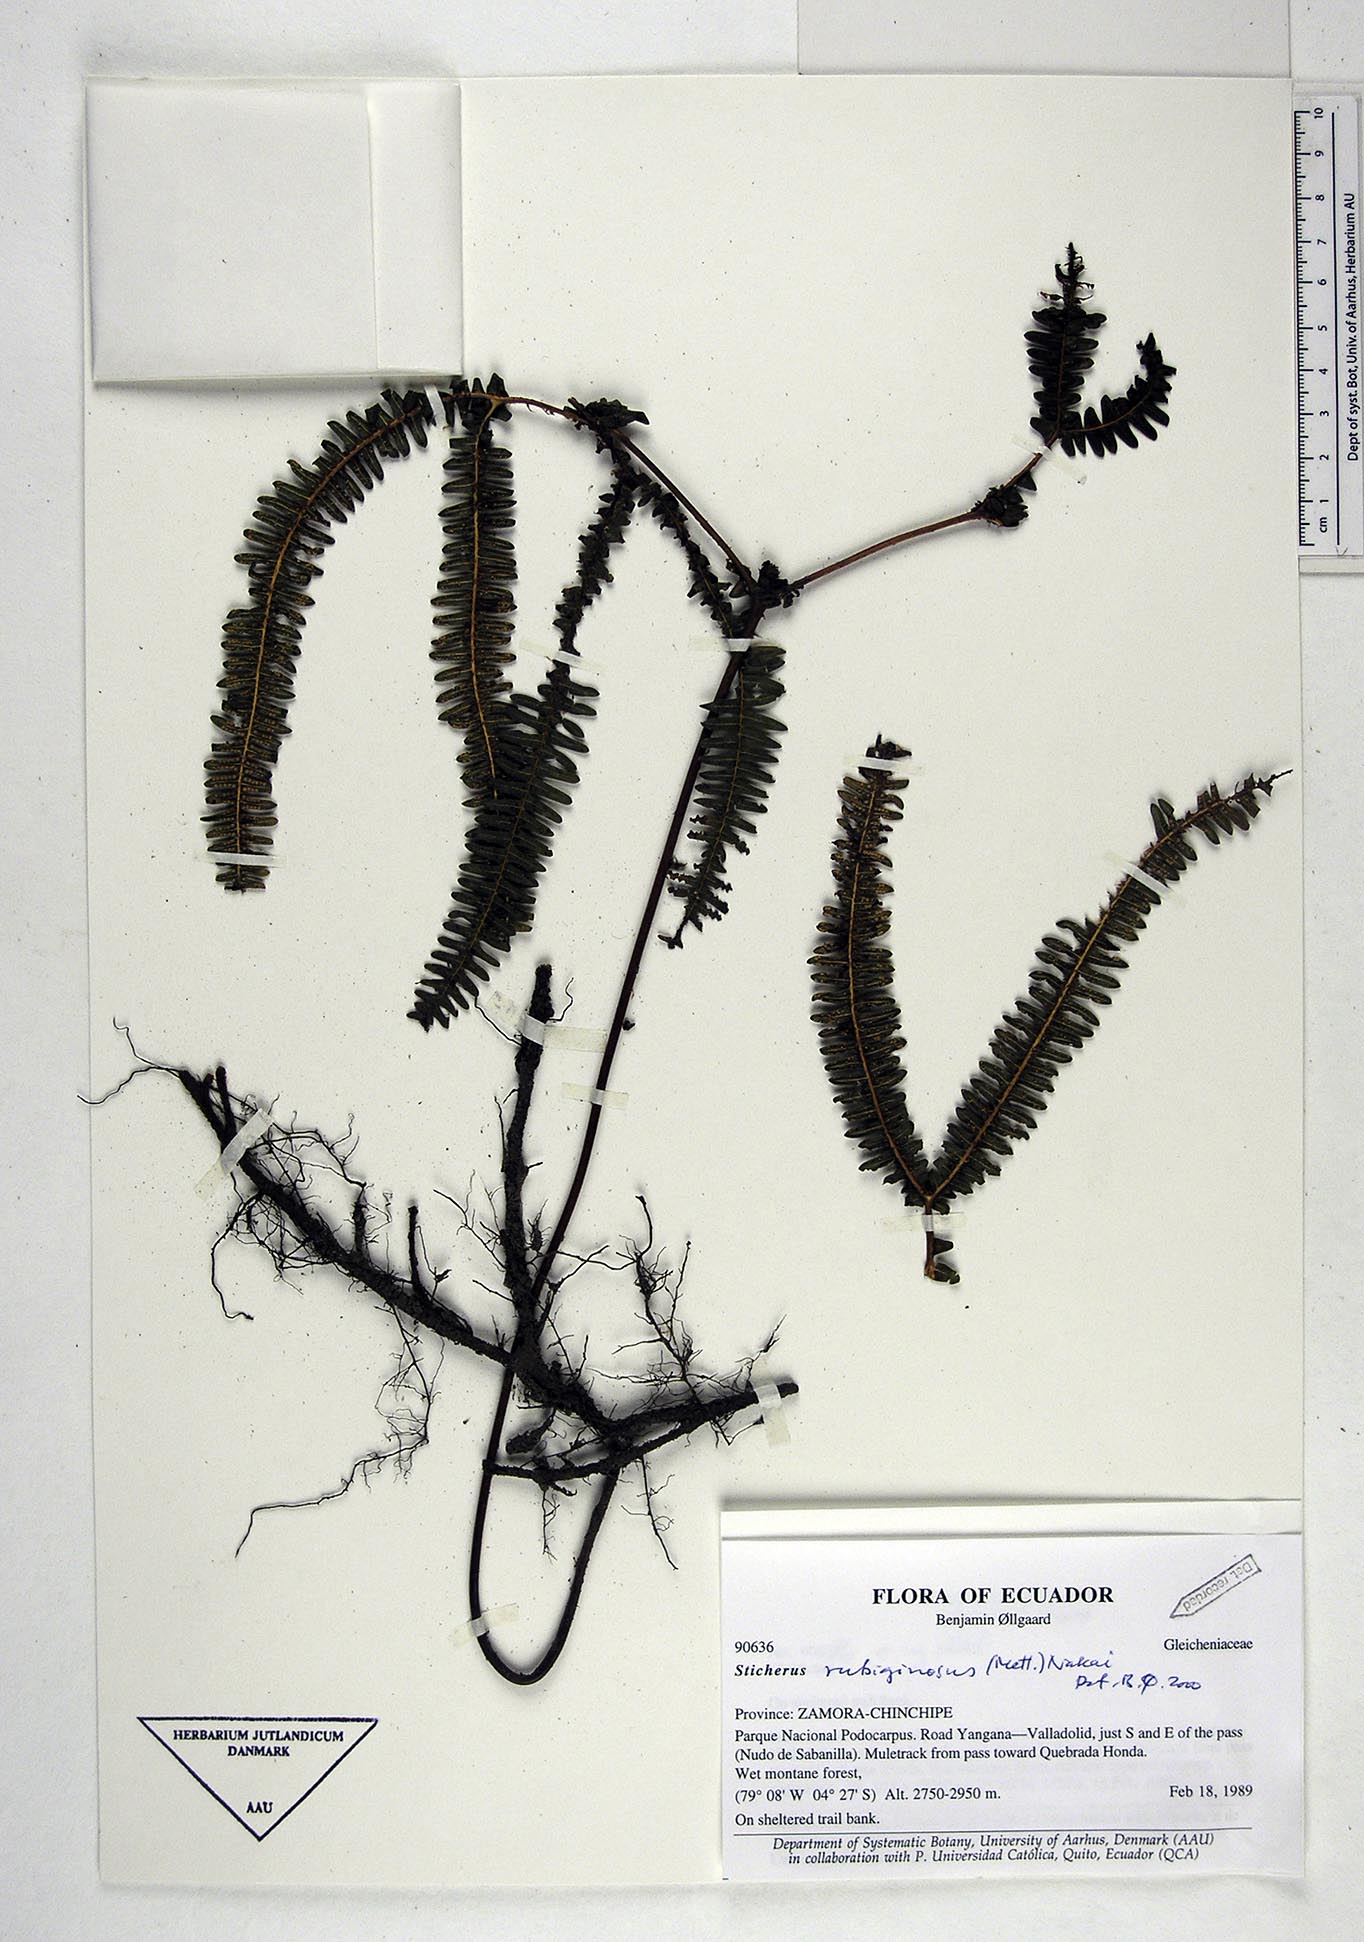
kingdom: Plantae
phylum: Tracheophyta
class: Polypodiopsida
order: Gleicheniales
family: Gleicheniaceae
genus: Sticherus
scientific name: Sticherus rubiginosus
